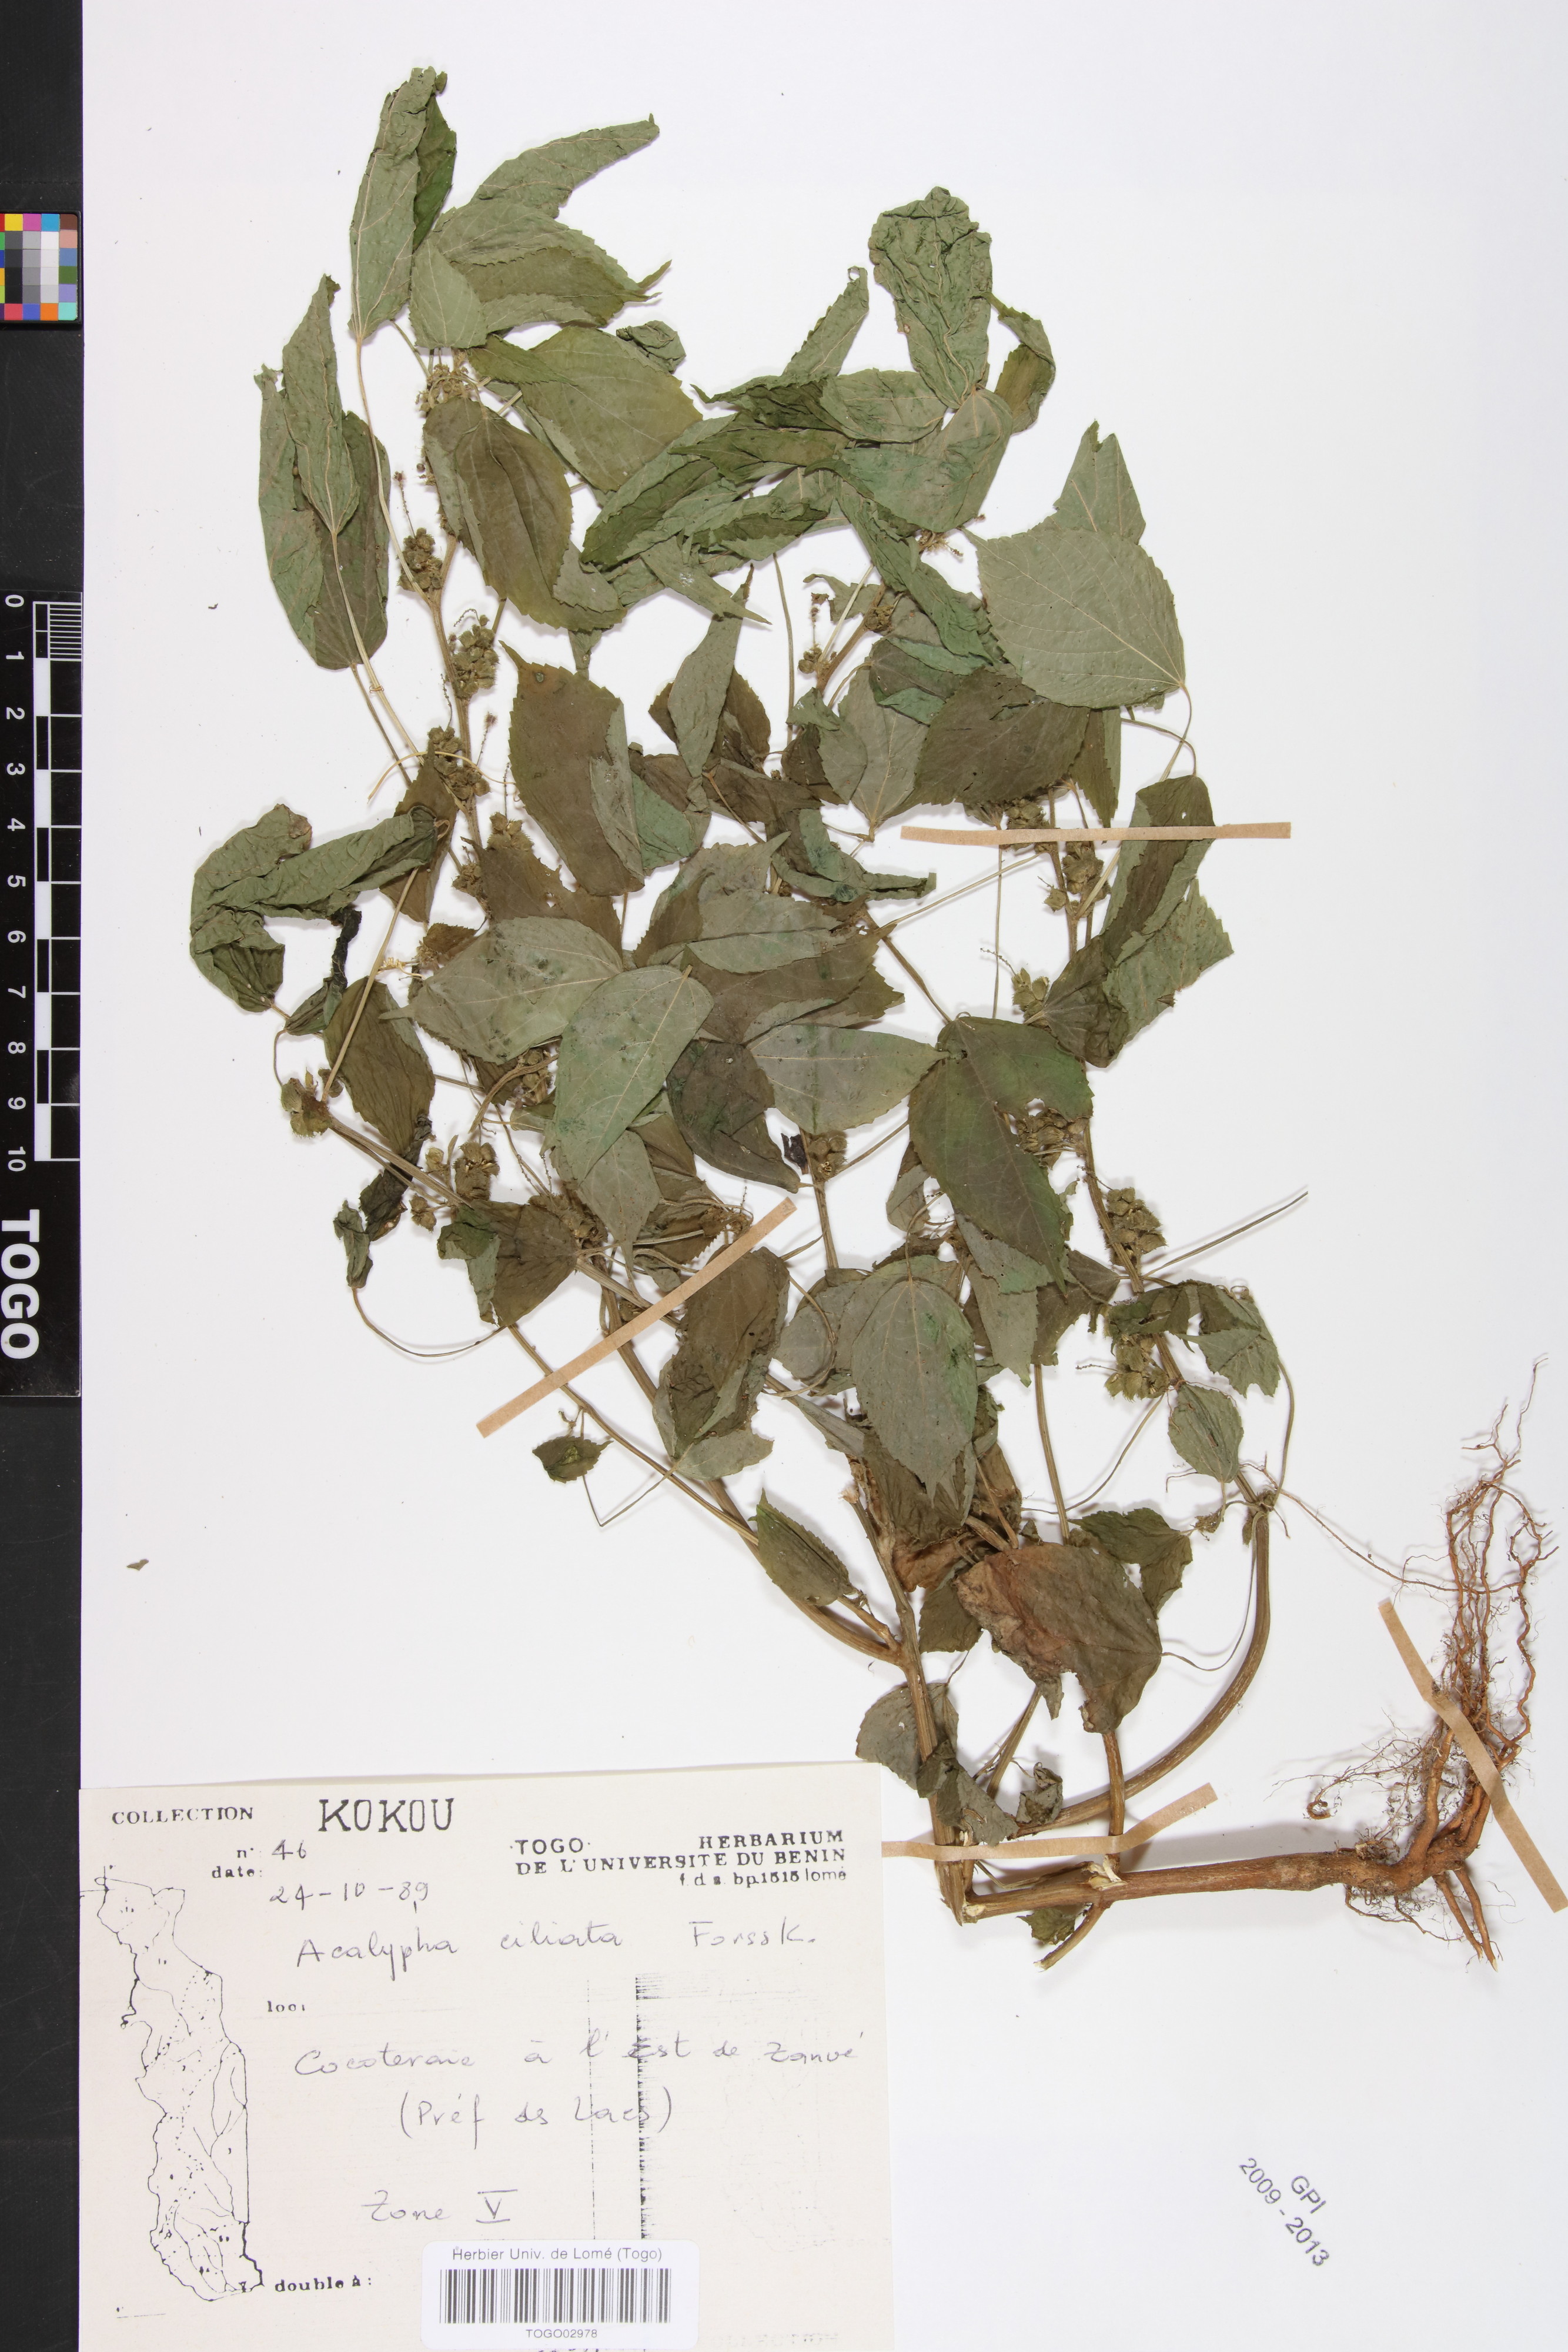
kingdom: Plantae
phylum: Tracheophyta
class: Magnoliopsida
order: Malpighiales
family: Phyllanthaceae
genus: Maesobotrya
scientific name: Maesobotrya
